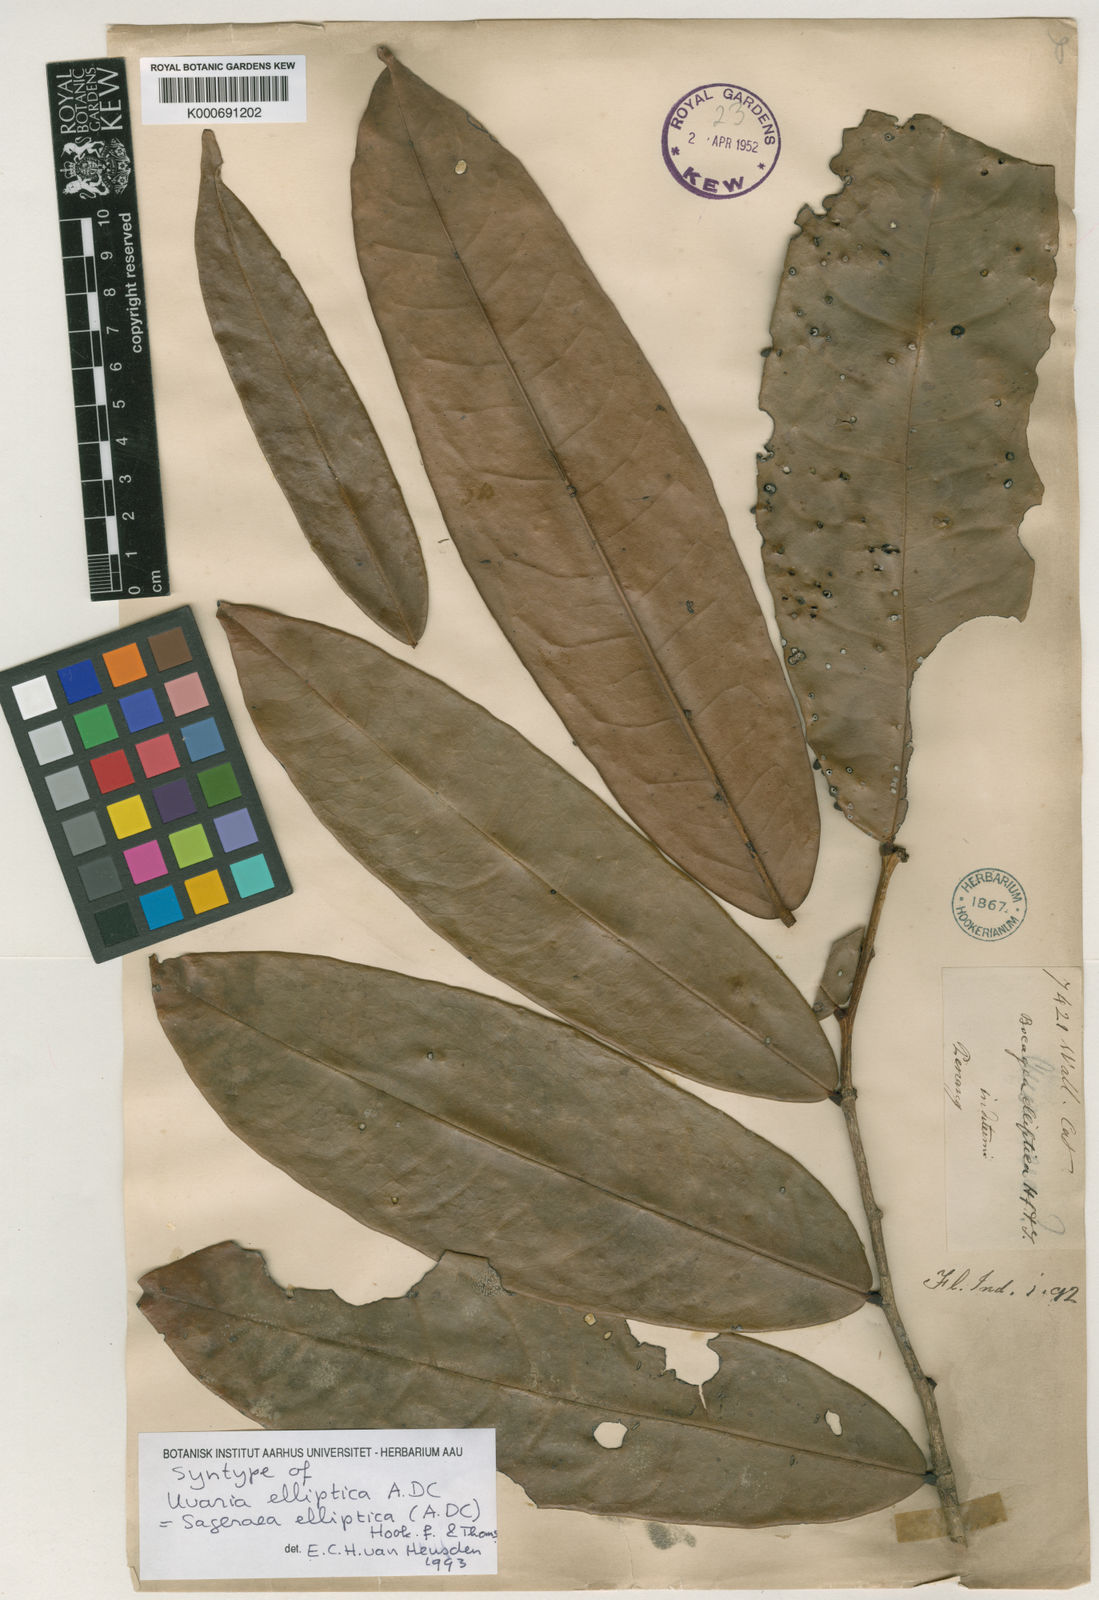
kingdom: Plantae
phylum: Tracheophyta
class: Magnoliopsida
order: Magnoliales
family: Annonaceae
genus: Sageraea
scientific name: Sageraea elliptica
